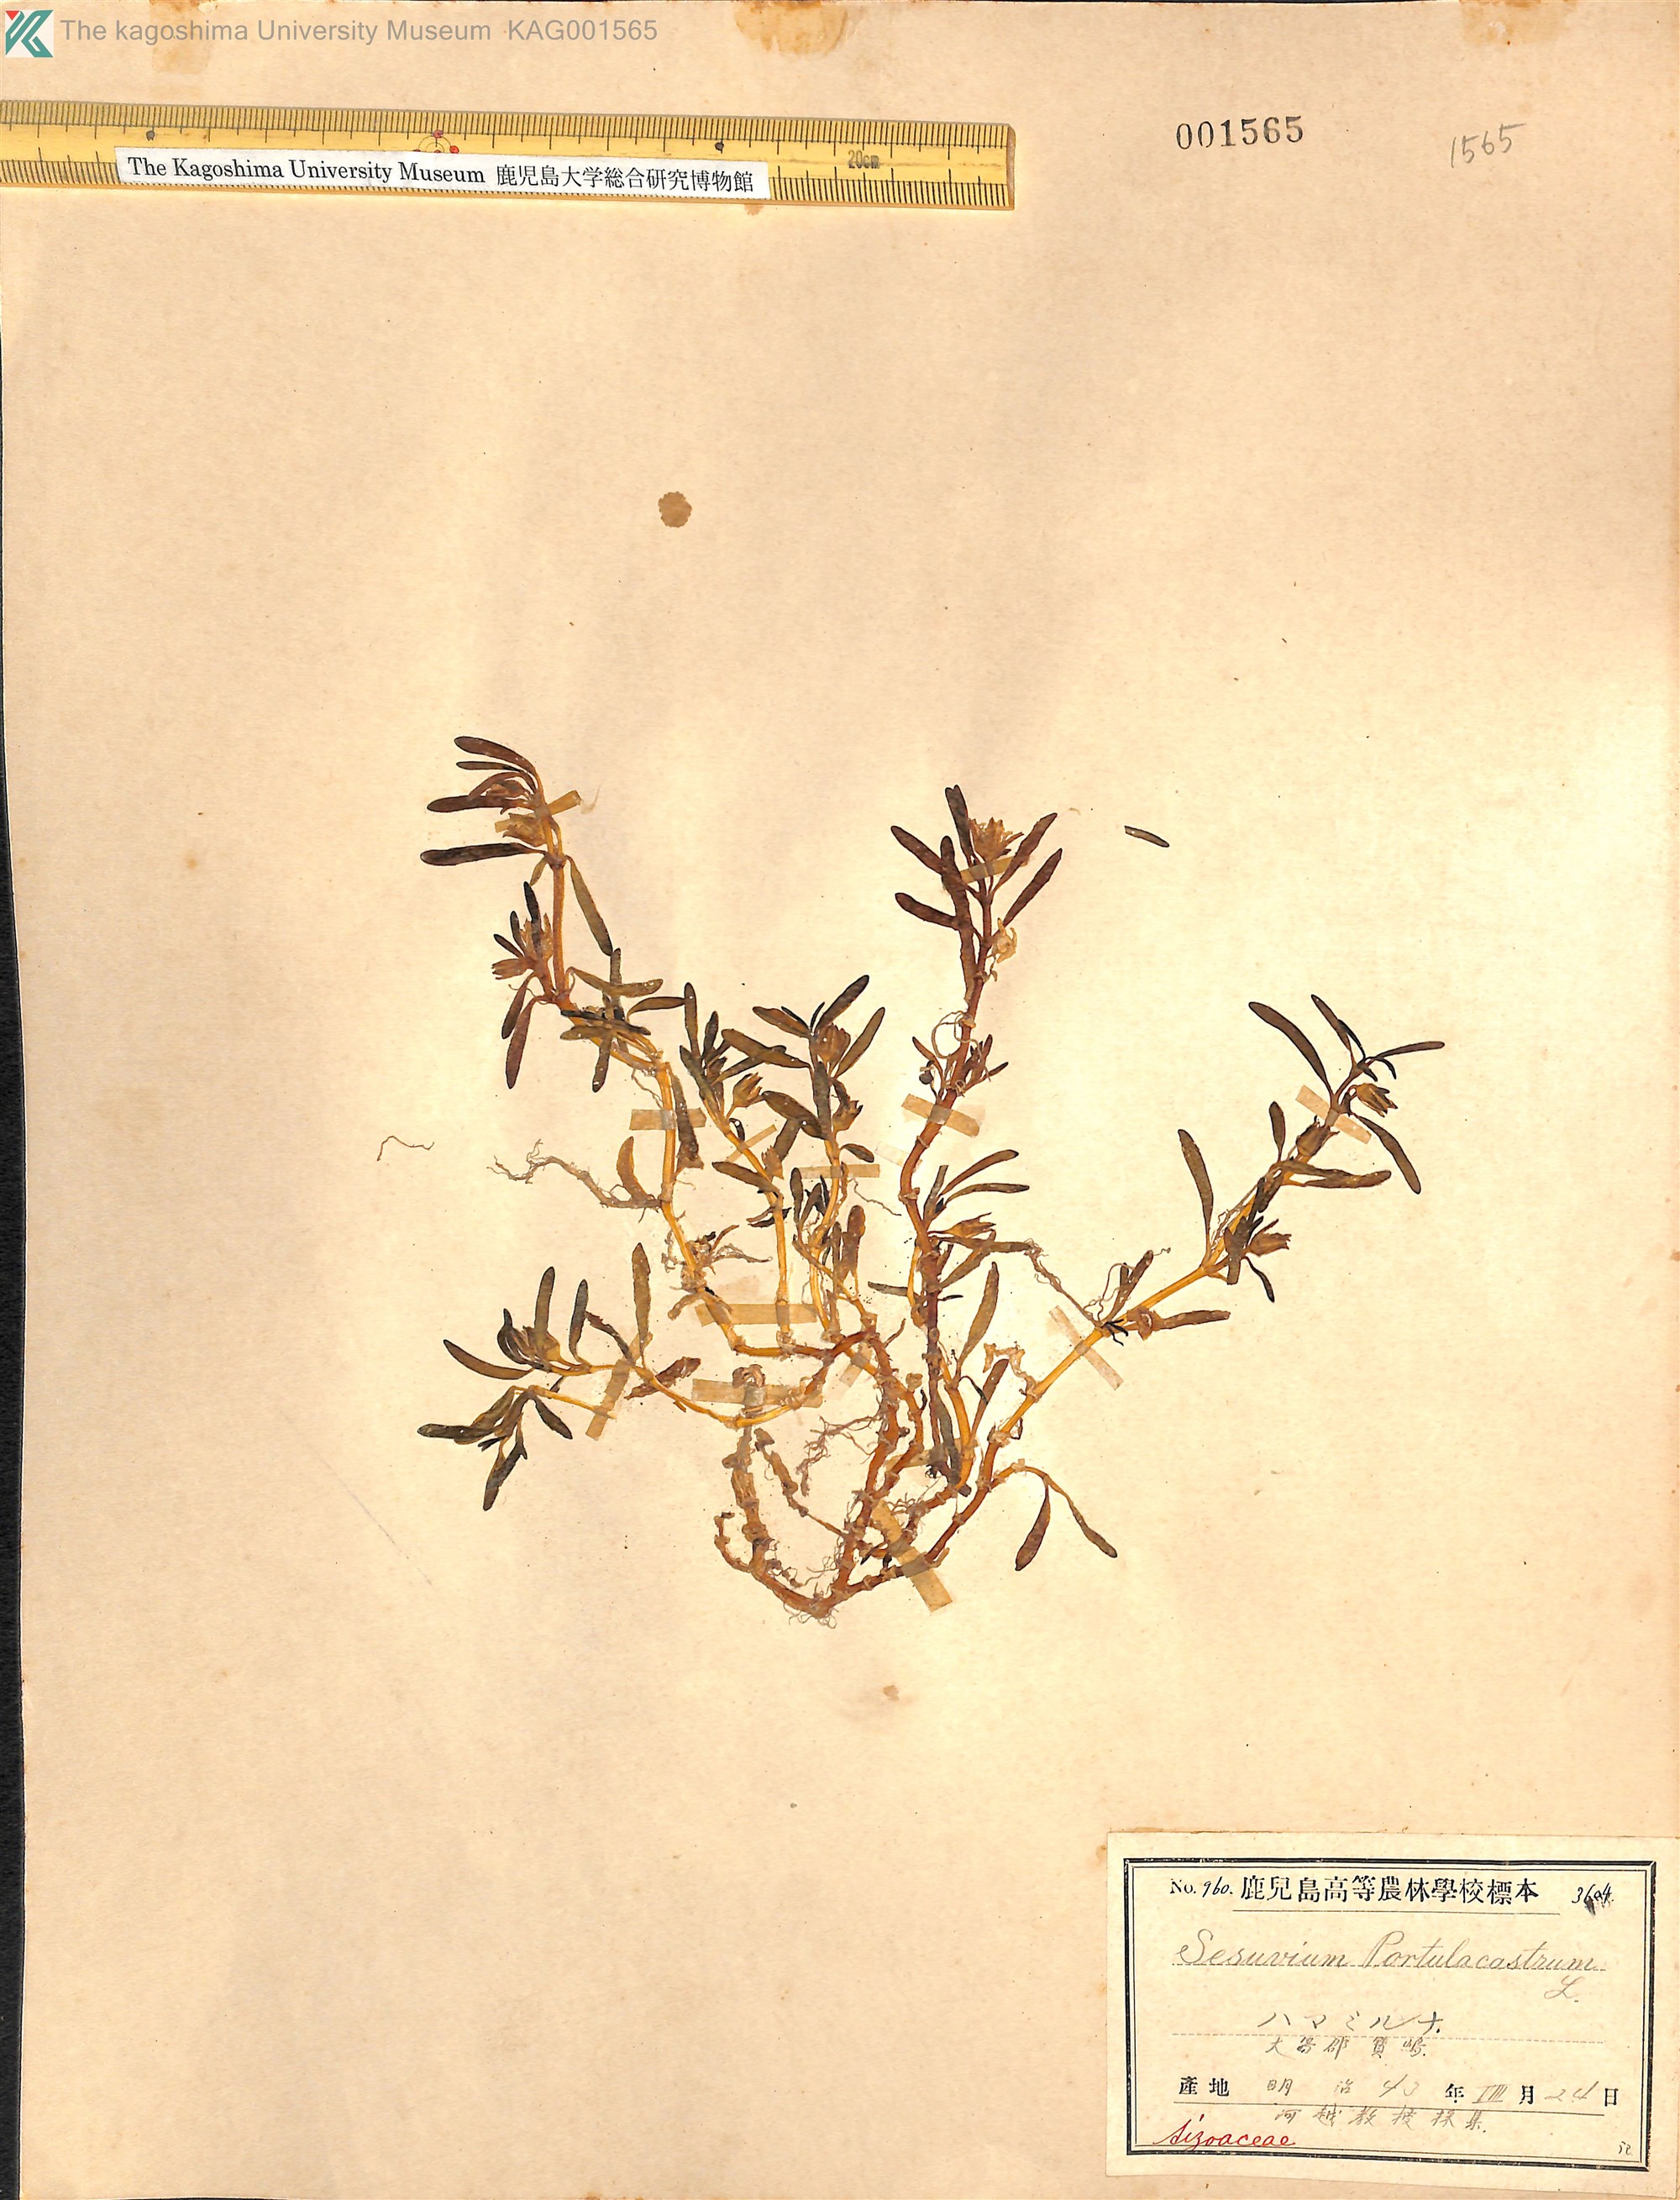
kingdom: Plantae
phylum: Tracheophyta
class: Magnoliopsida
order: Caryophyllales
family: Aizoaceae
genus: Sesuvium
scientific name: Sesuvium portulacastrum
